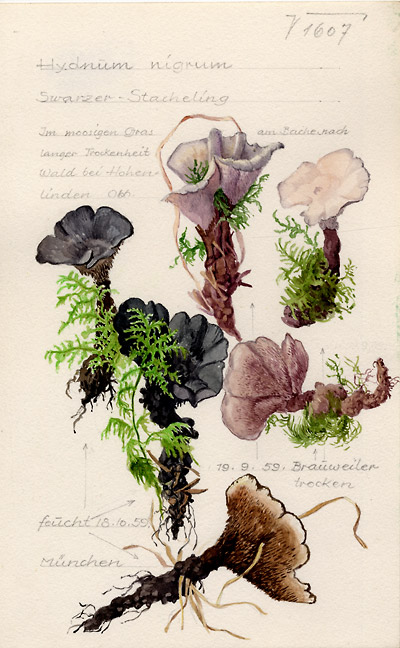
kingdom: Fungi
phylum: Basidiomycota
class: Agaricomycetes
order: Thelephorales
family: Thelephoraceae
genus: Phellodon
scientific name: Phellodon niger
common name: Black tooth
